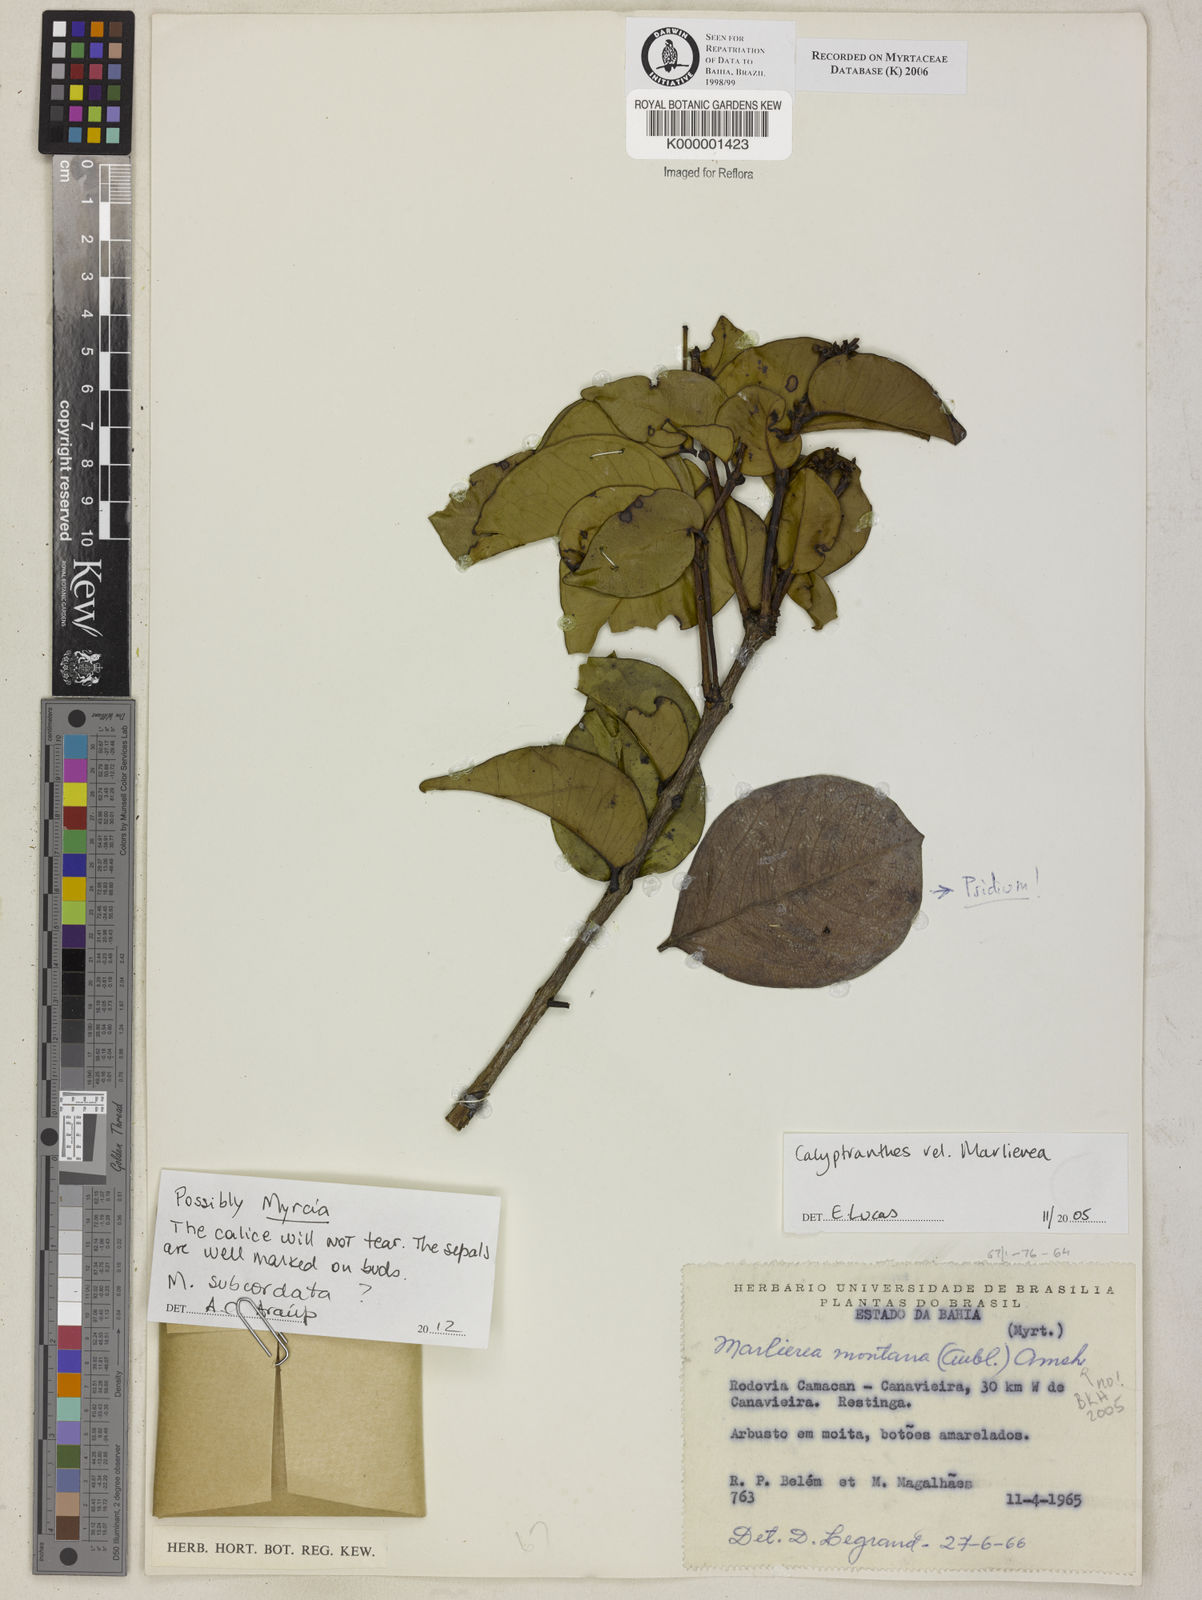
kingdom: Plantae
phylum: Tracheophyta
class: Magnoliopsida
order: Myrtales
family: Myrtaceae
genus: Myrcia
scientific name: Myrcia neomontana
